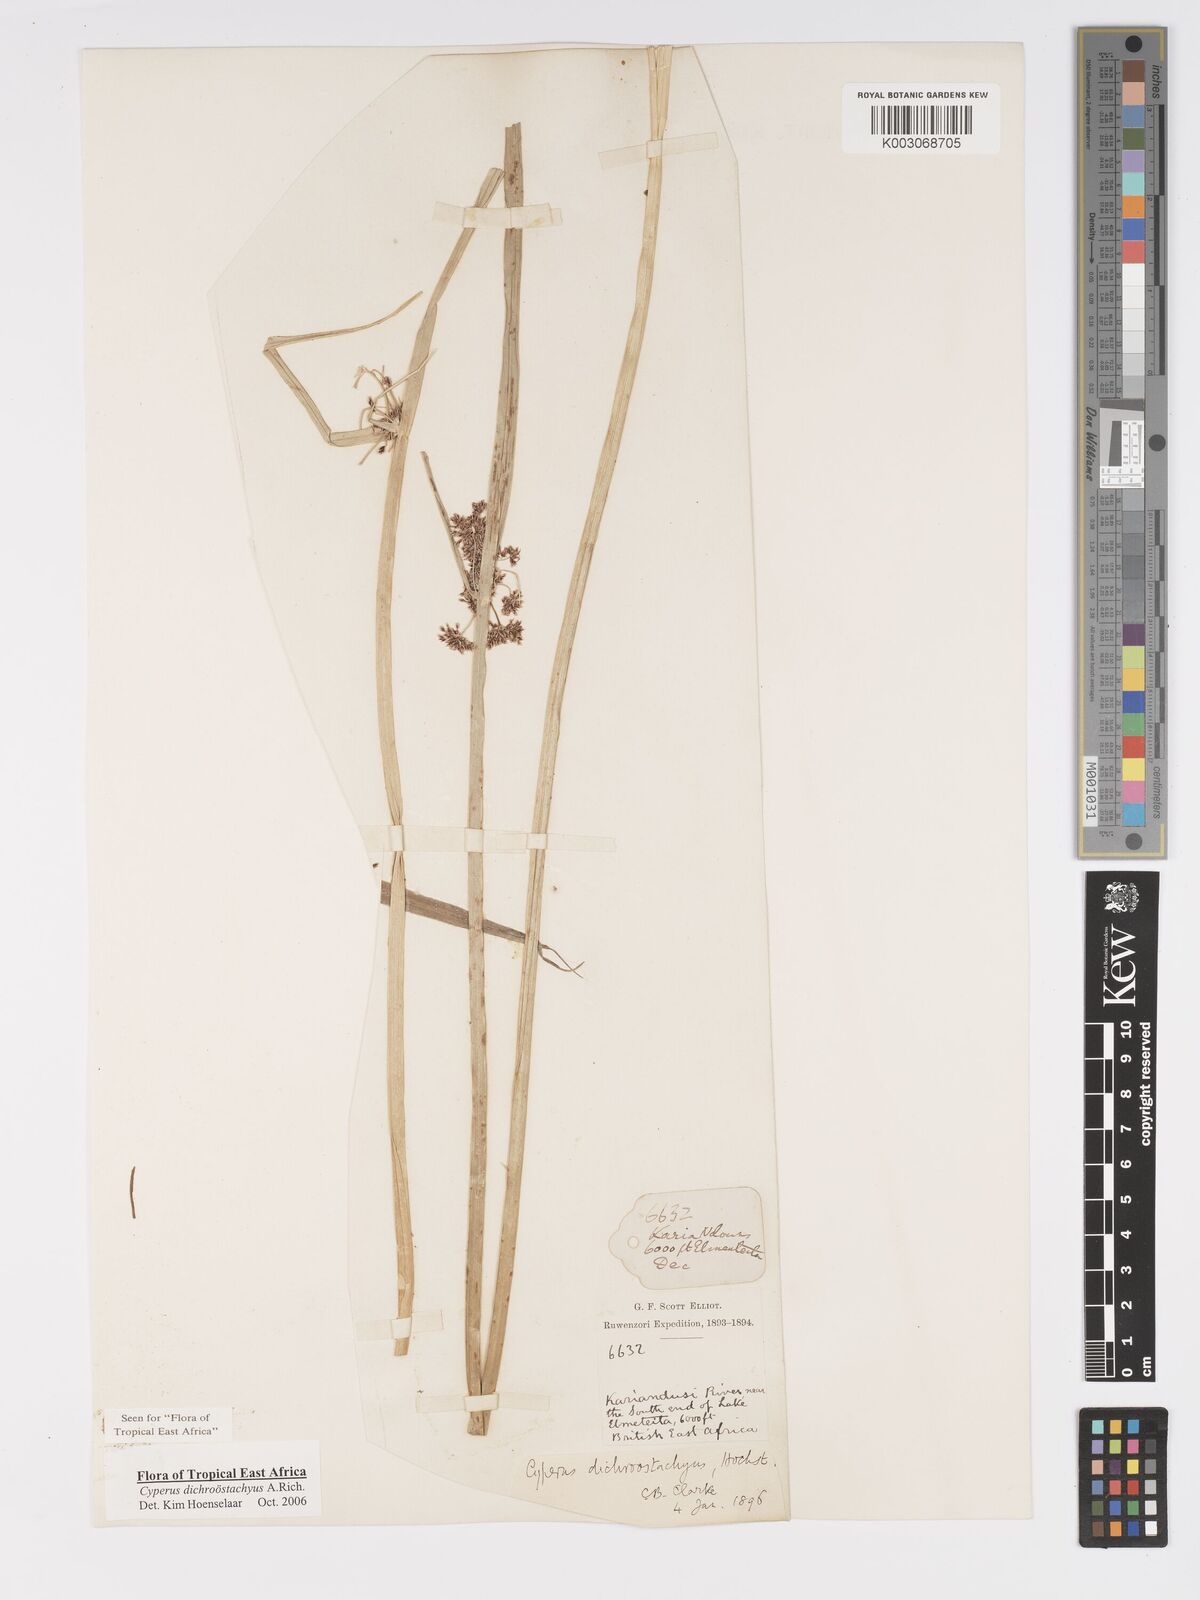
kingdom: Plantae
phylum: Tracheophyta
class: Liliopsida
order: Poales
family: Cyperaceae
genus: Cyperus
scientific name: Cyperus dichrostachyus
